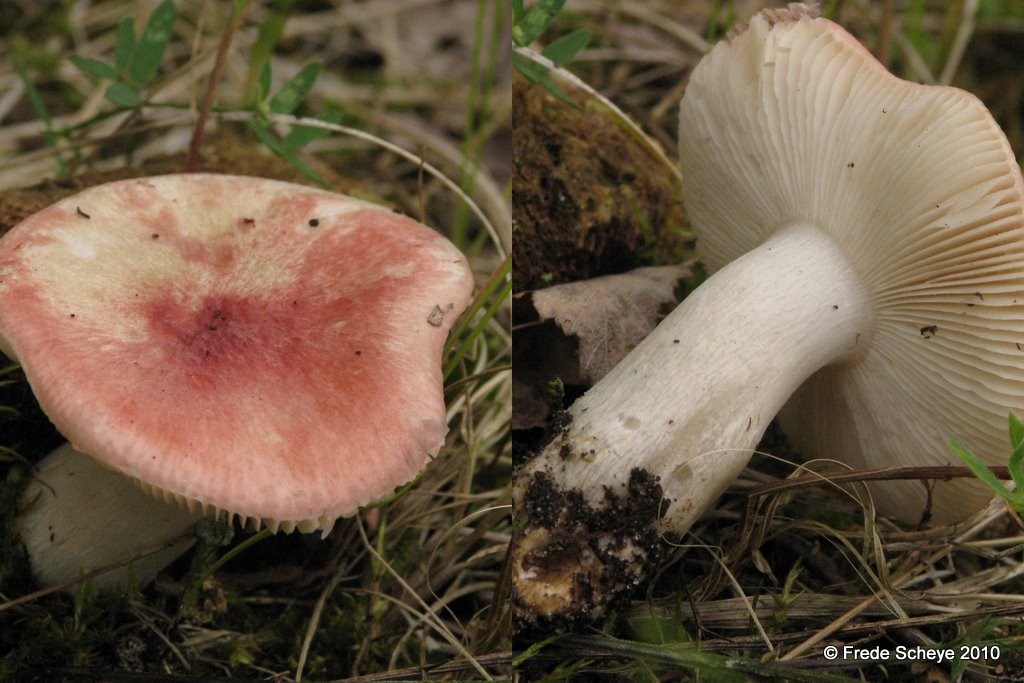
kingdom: Fungi
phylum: Basidiomycota
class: Agaricomycetes
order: Russulales
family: Russulaceae
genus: Russula
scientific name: Russula depallens
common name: falmende skørhat
